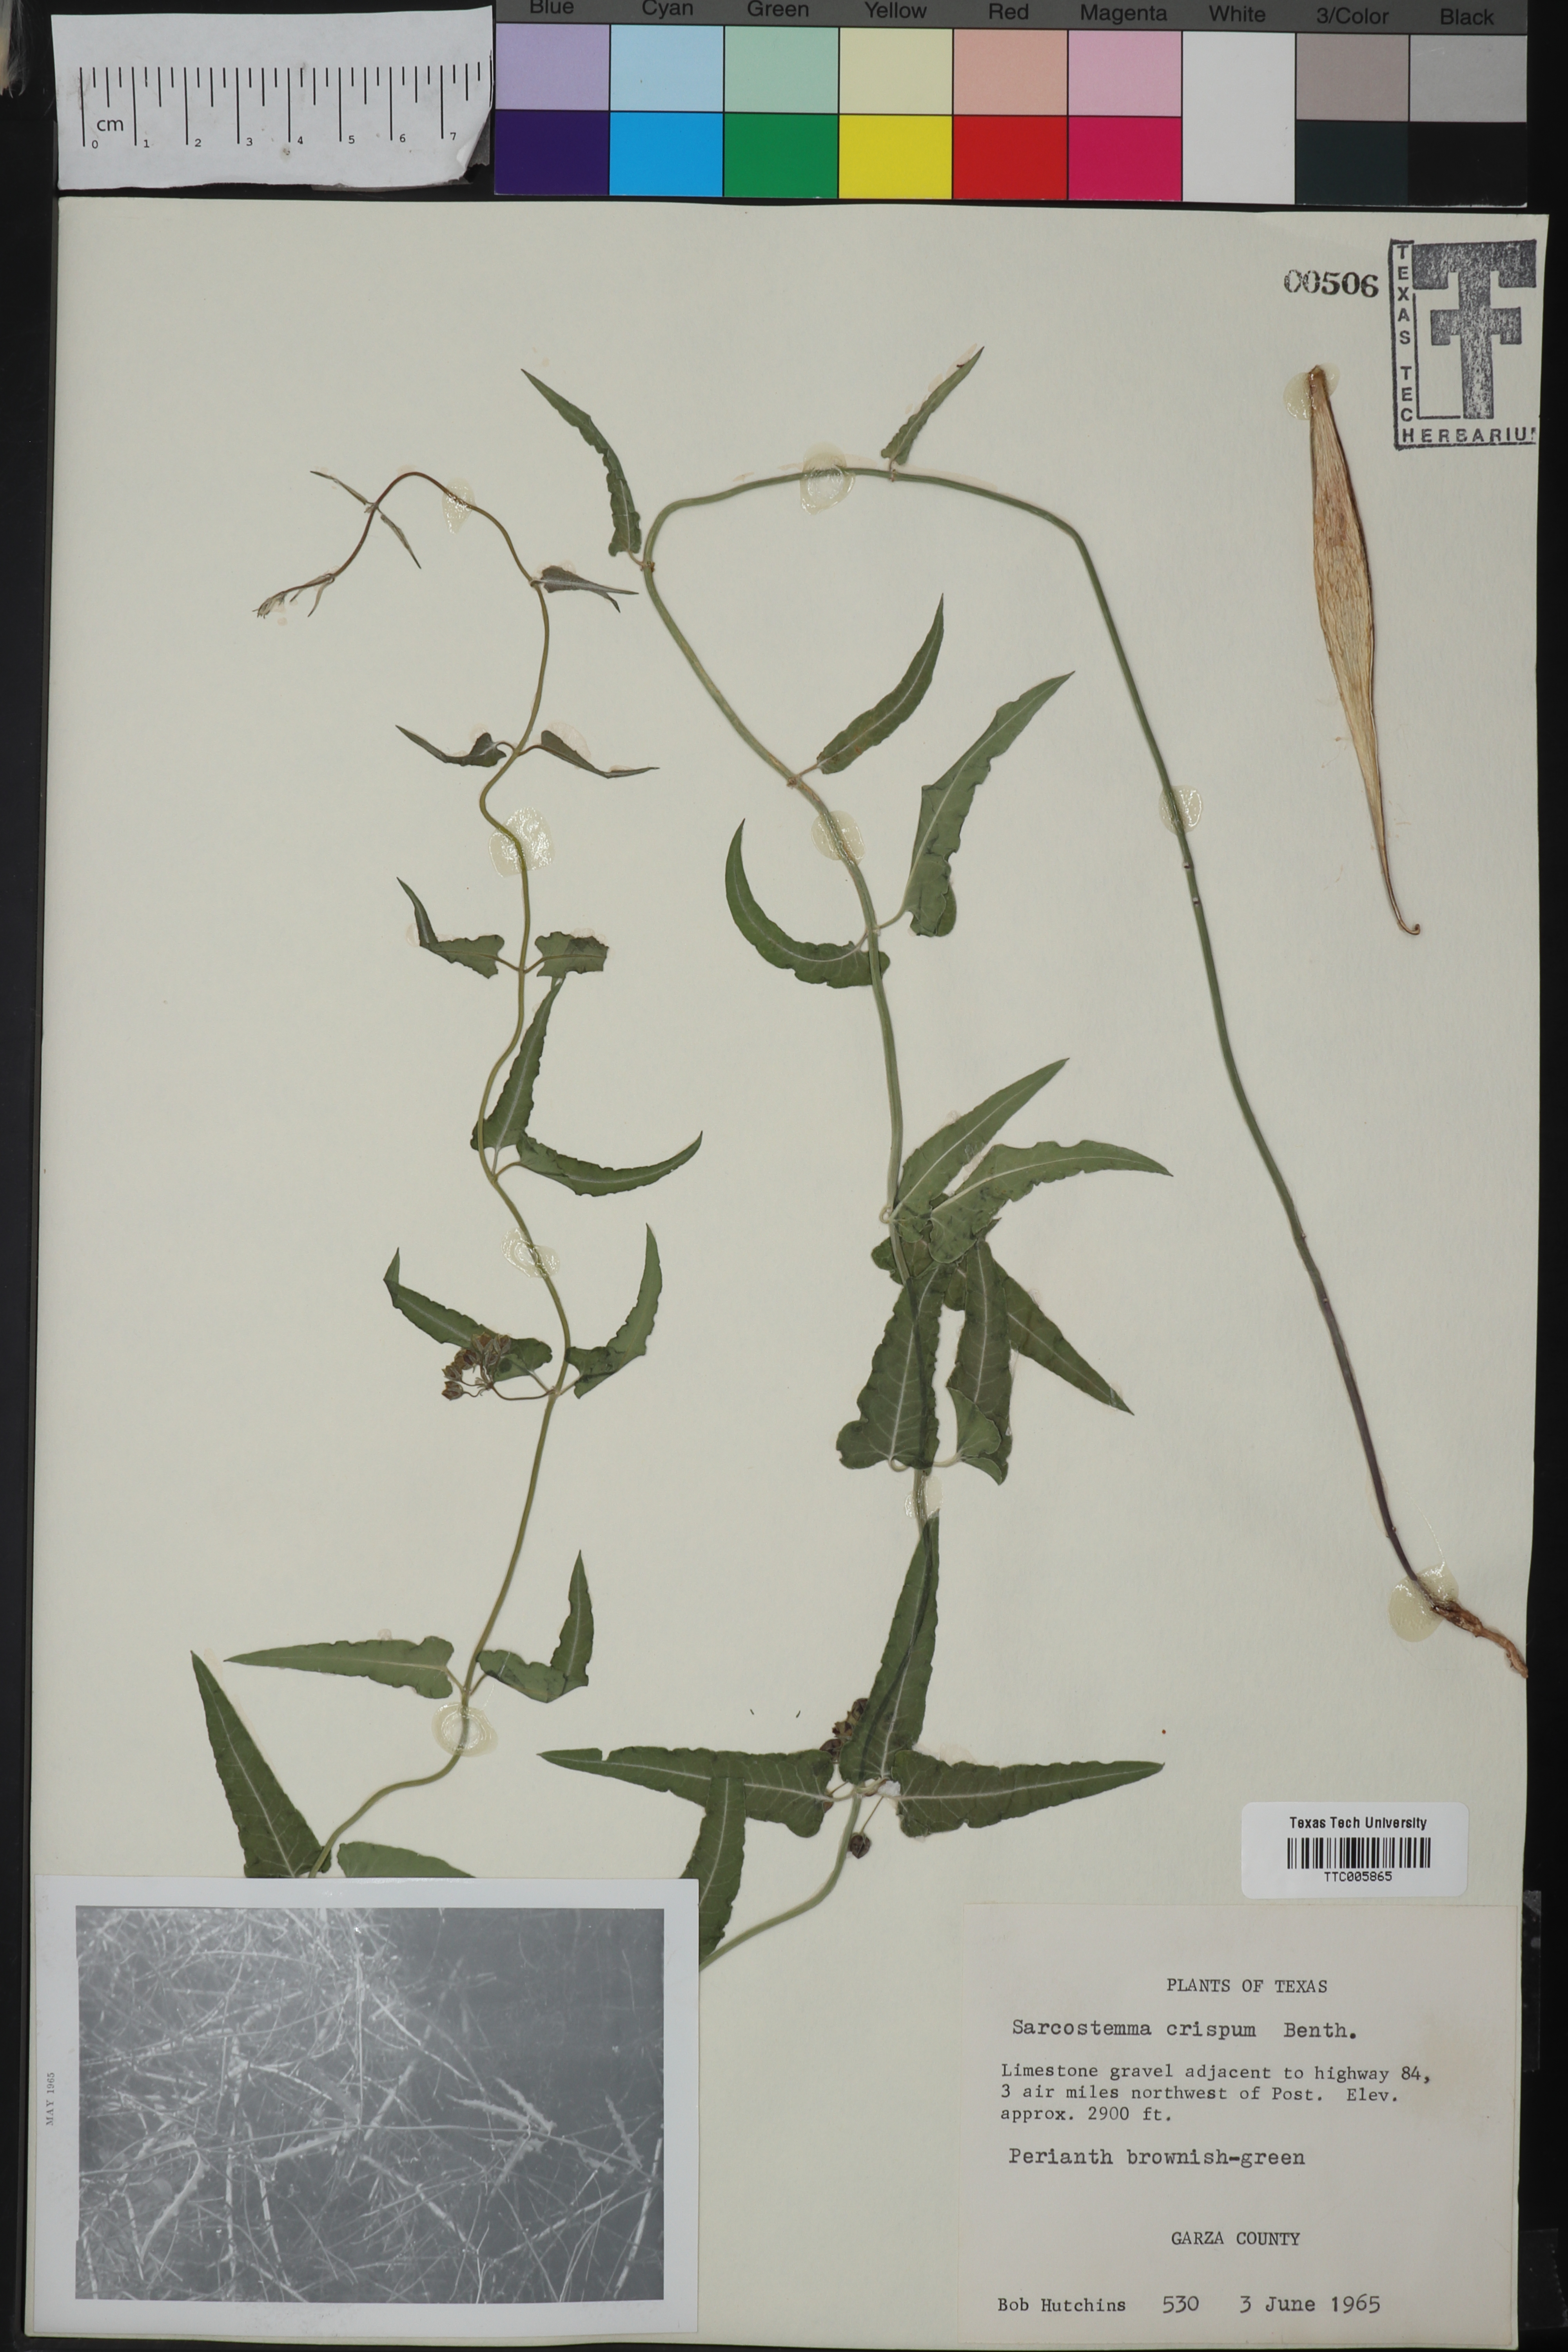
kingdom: Plantae
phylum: Tracheophyta
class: Magnoliopsida
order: Gentianales
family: Apocynaceae
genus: Funastrum
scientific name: Funastrum crispum
